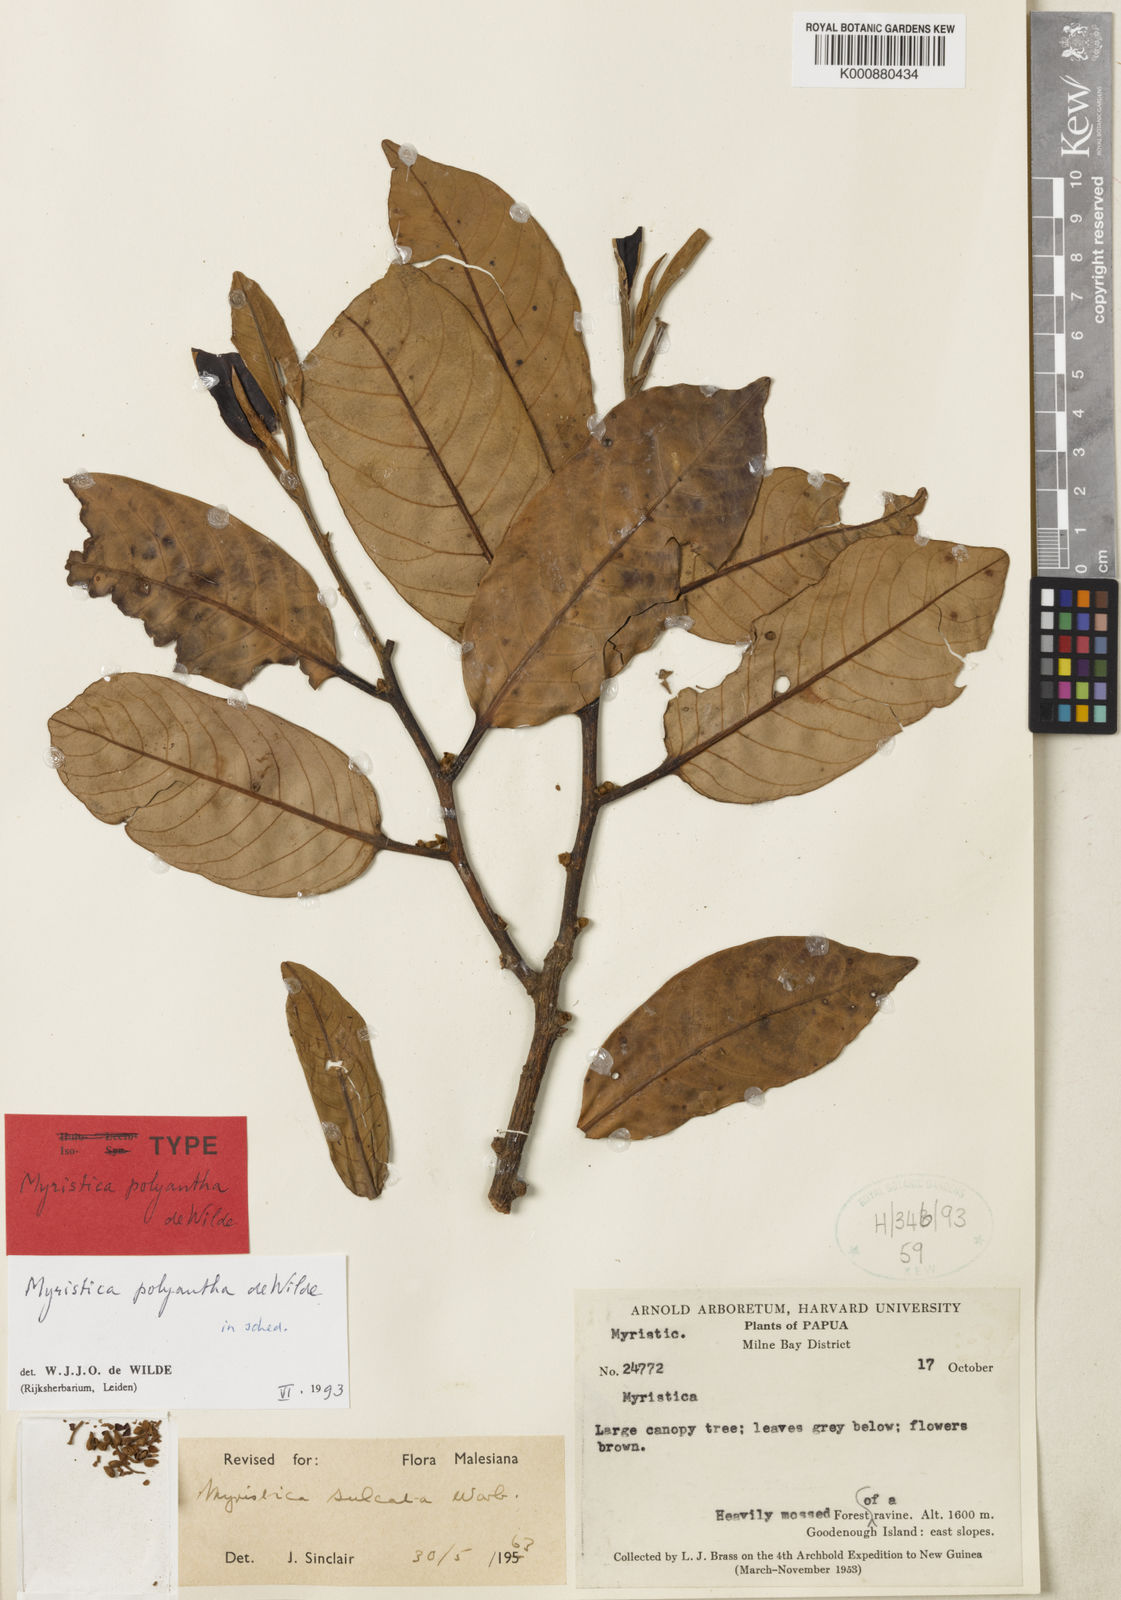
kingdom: Plantae
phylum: Tracheophyta
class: Magnoliopsida
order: Magnoliales
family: Myristicaceae
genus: Myristica
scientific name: Myristica johnsii
